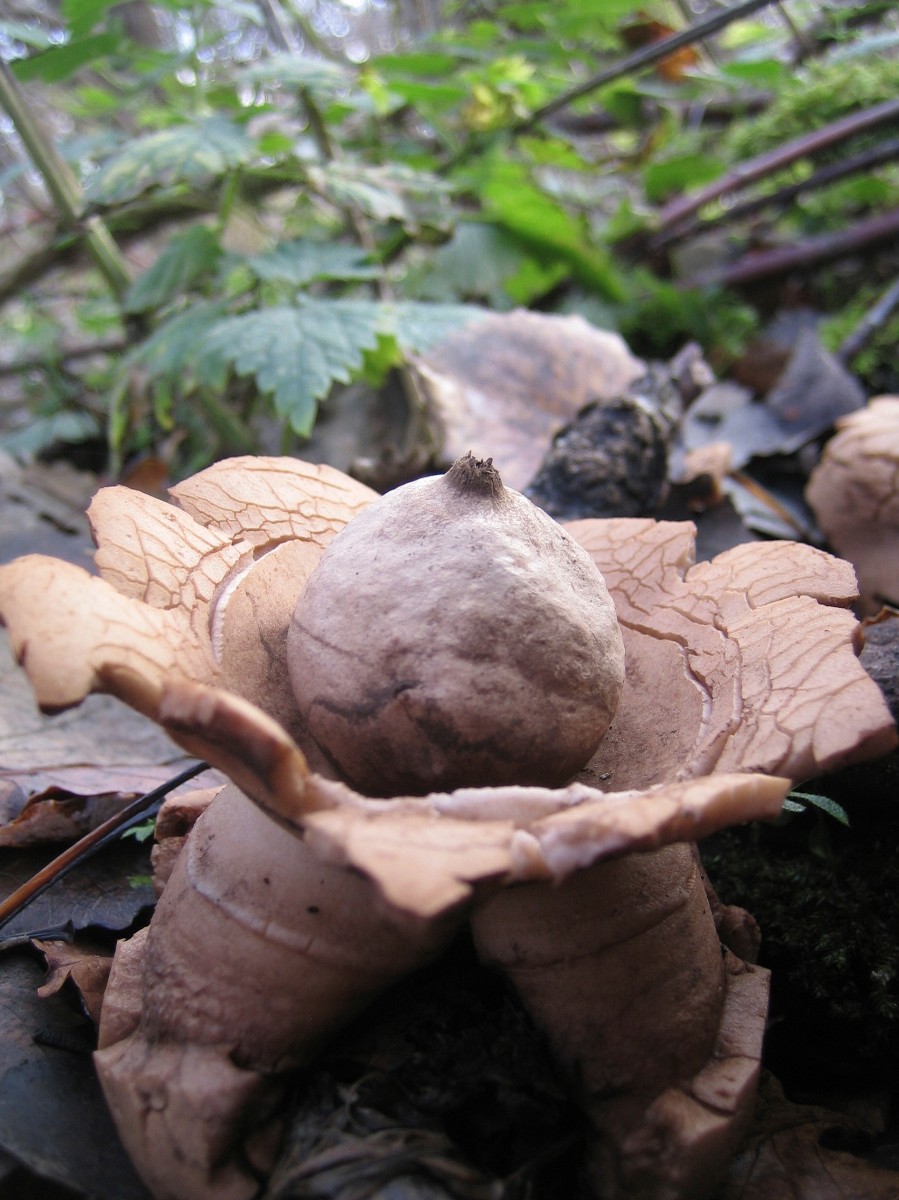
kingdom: Fungi
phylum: Basidiomycota
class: Agaricomycetes
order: Geastrales
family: Geastraceae
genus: Geastrum
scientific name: Geastrum michelianum
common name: kødet stjernebold
